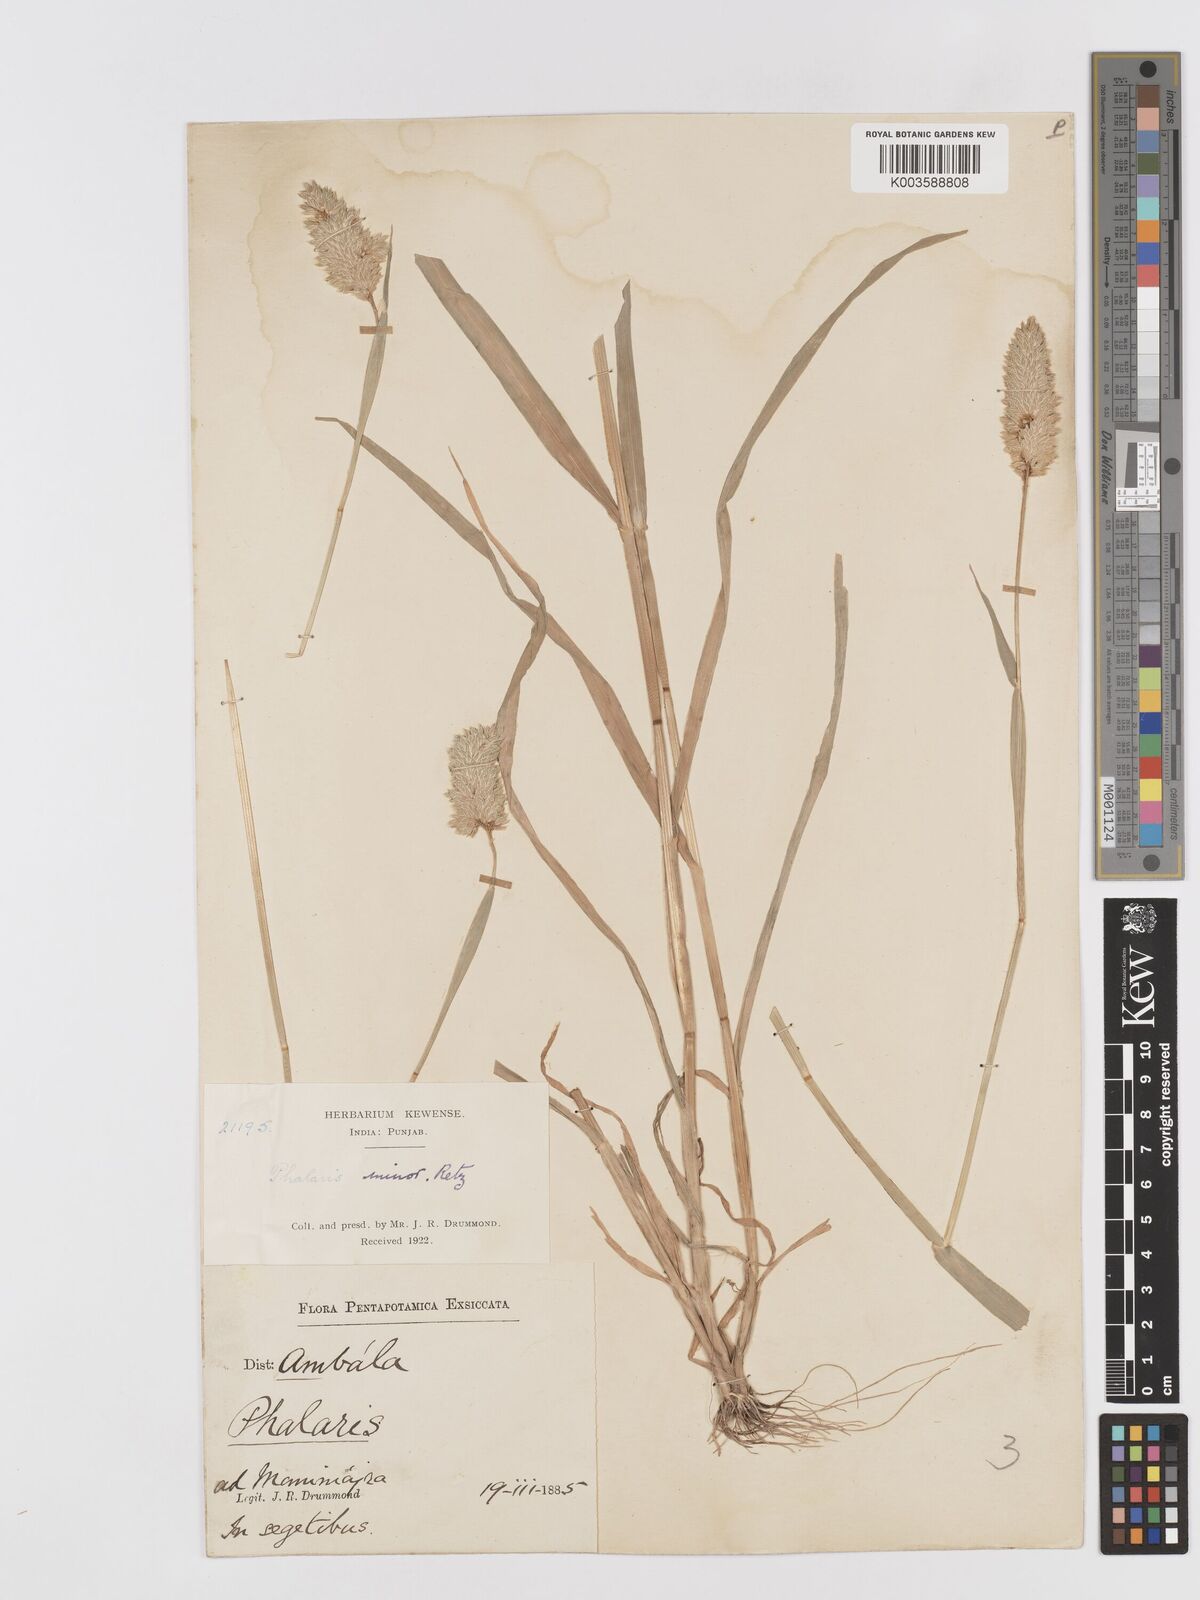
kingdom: Plantae
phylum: Tracheophyta
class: Liliopsida
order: Poales
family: Poaceae
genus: Phalaris
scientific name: Phalaris minor
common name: Littleseed canarygrass
